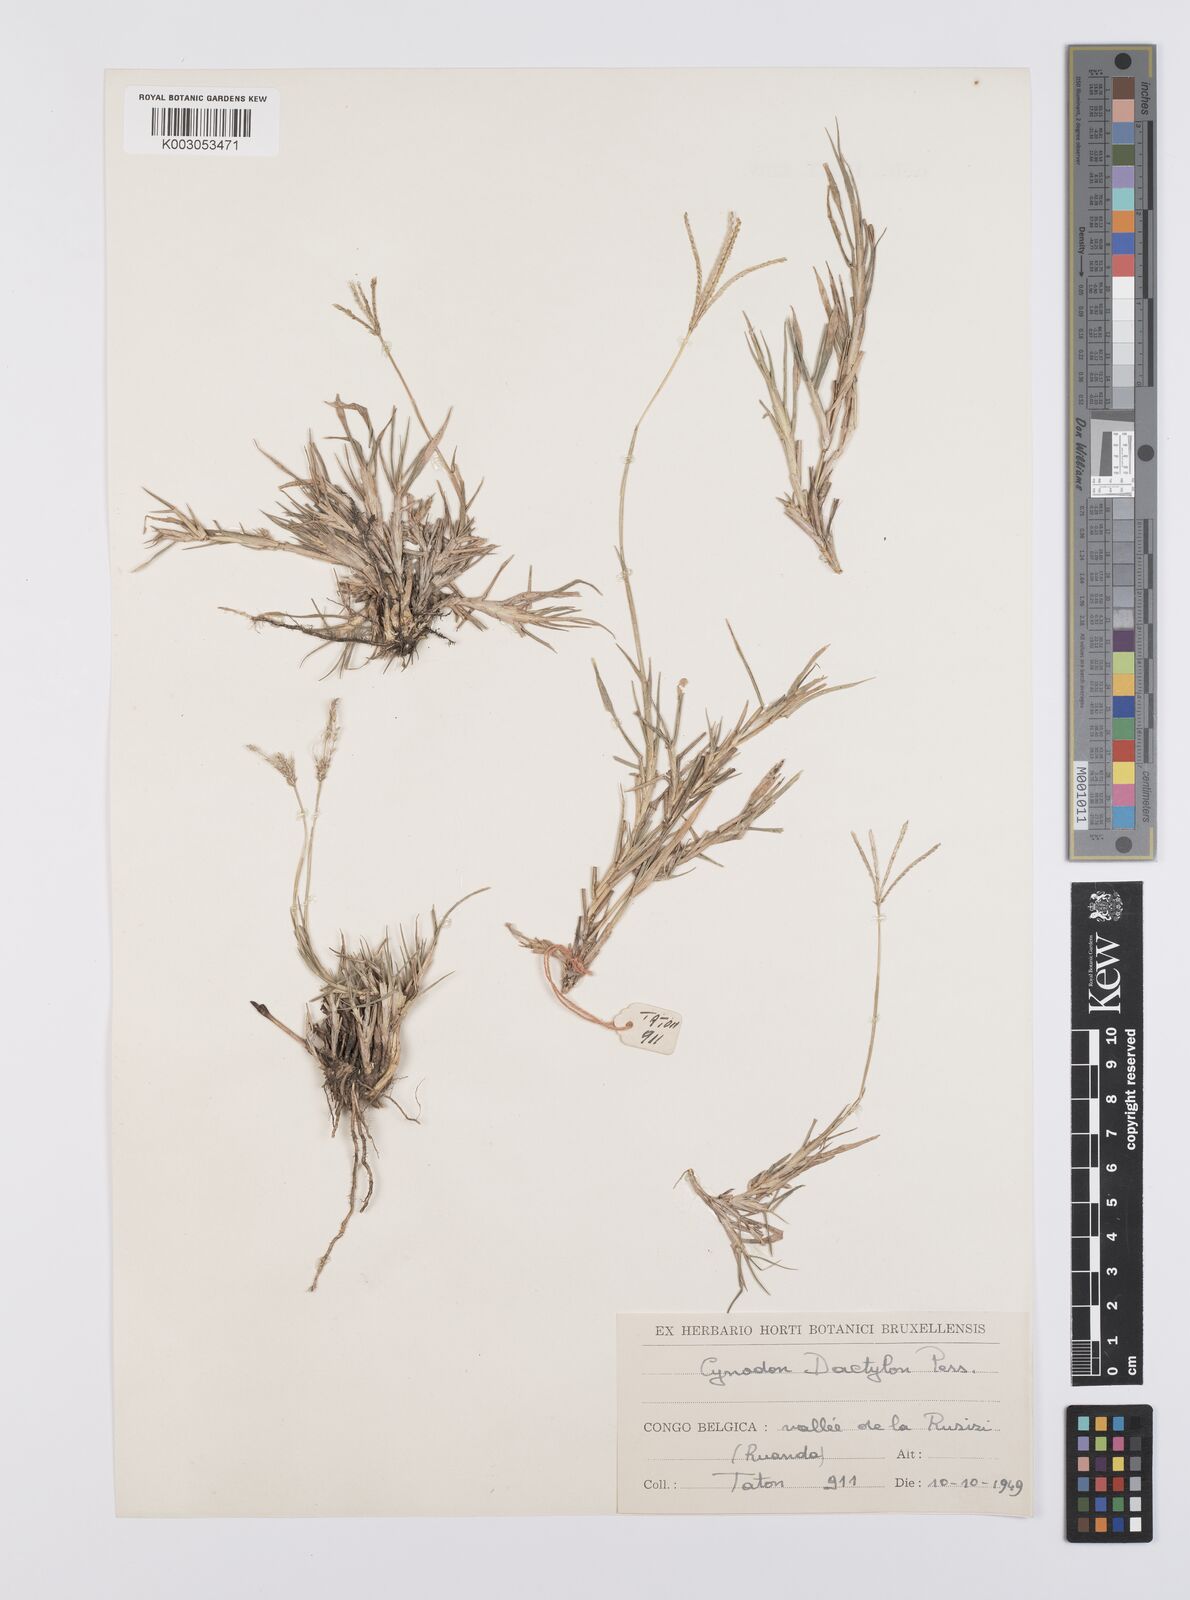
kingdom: Plantae
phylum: Tracheophyta
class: Liliopsida
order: Poales
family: Poaceae
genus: Cynodon
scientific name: Cynodon dactylon
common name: Bermuda grass
